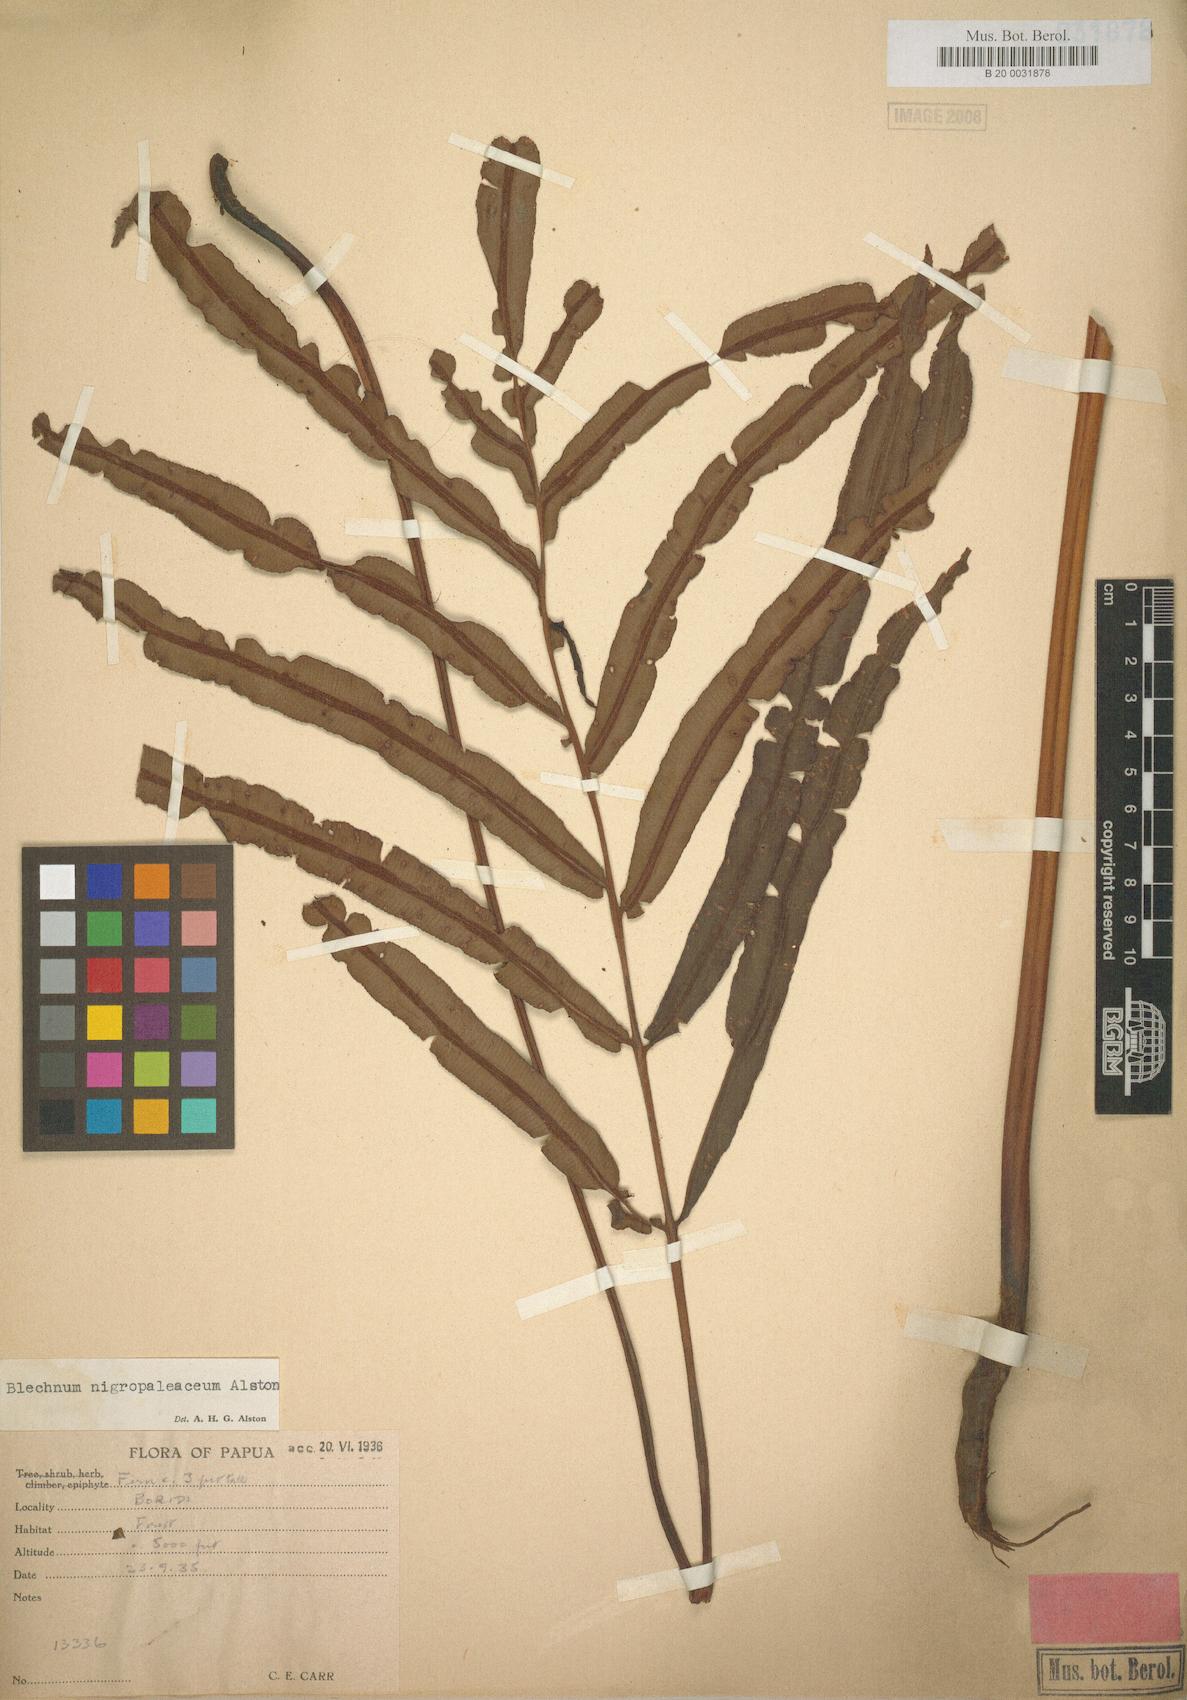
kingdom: Plantae
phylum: Tracheophyta
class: Polypodiopsida
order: Polypodiales
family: Blechnaceae
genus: Oceaniopteris
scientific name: Oceaniopteris whelanii
